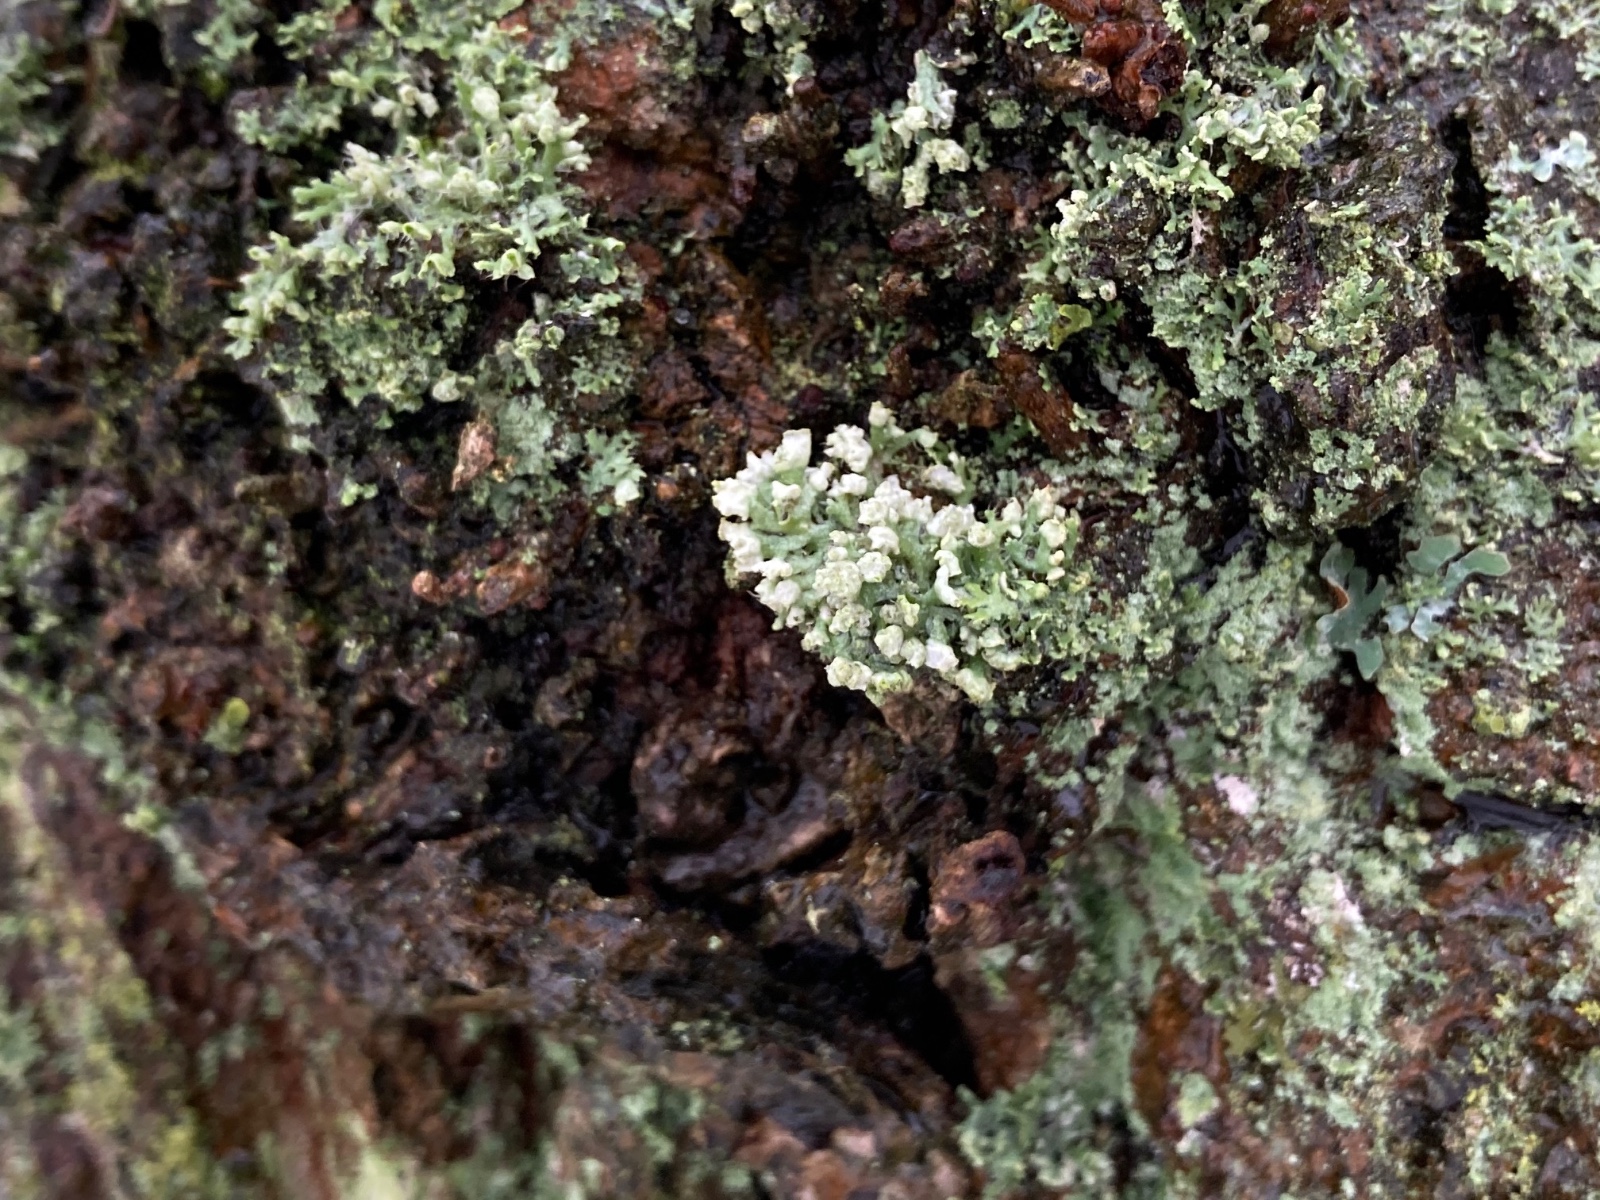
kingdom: Fungi
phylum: Ascomycota
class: Lecanoromycetes
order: Caliciales
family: Physciaceae
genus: Physcia
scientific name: Physcia adscendens
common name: hætte-rosetlav
